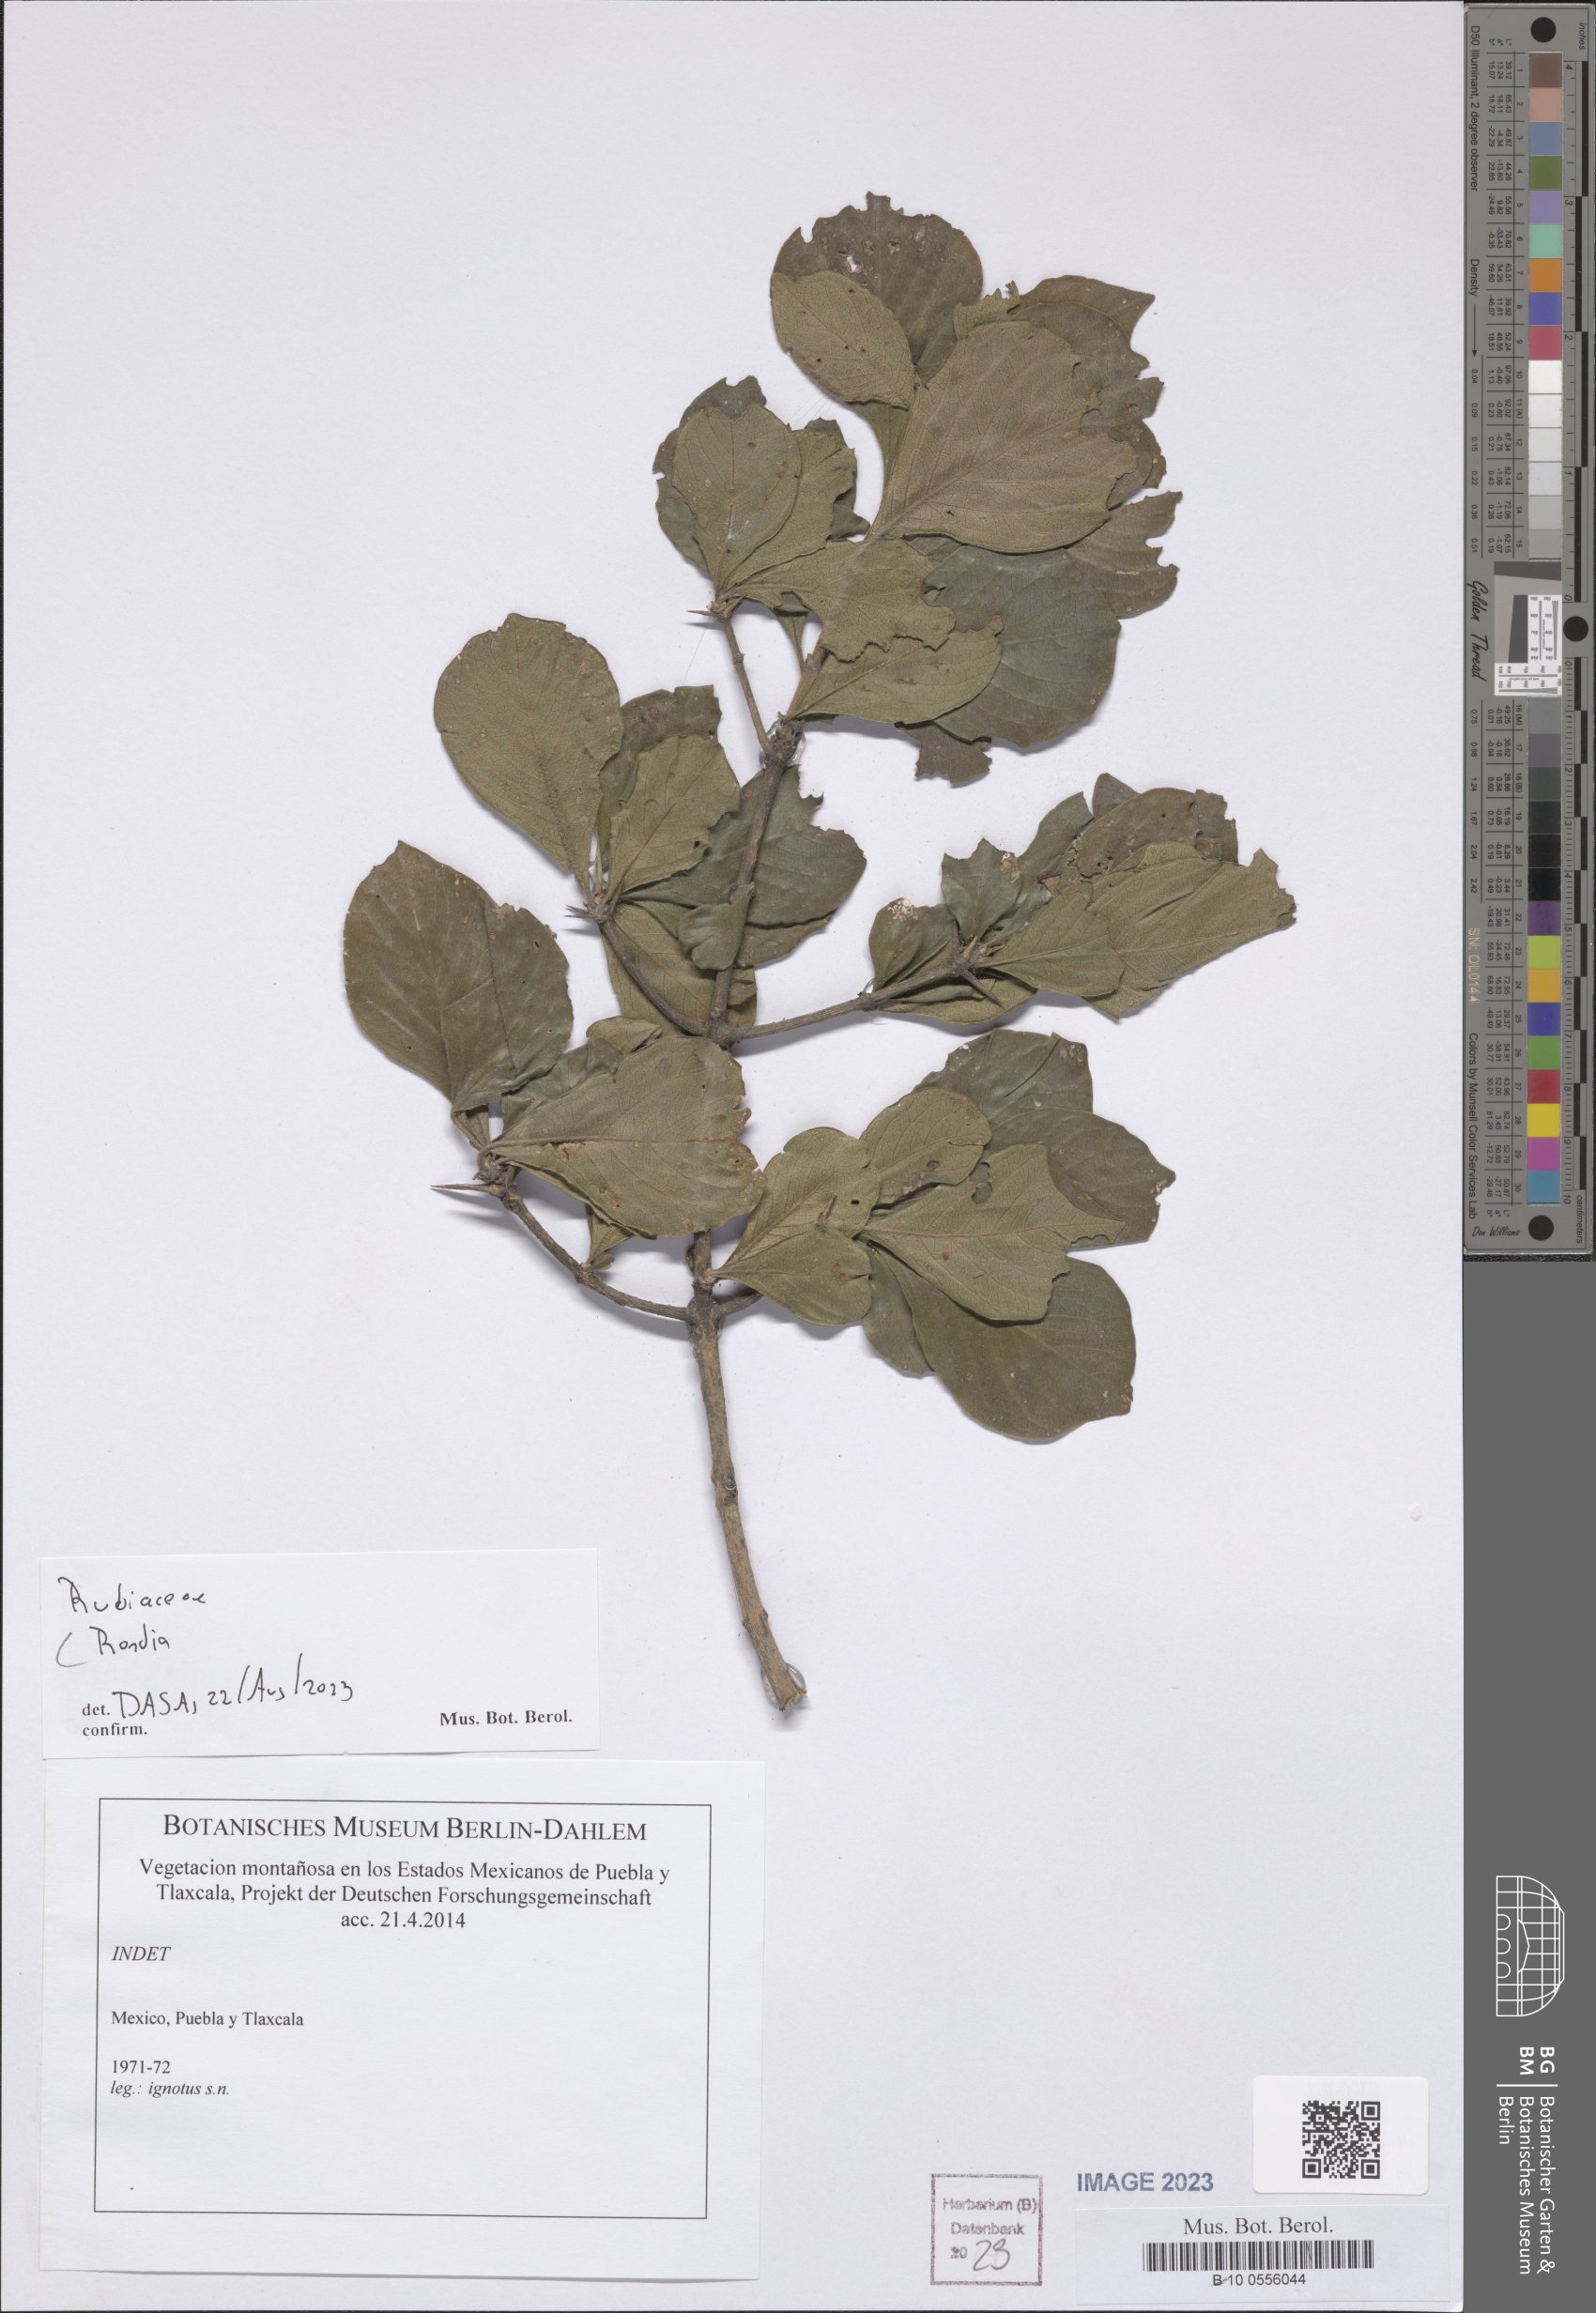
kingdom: Plantae
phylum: Tracheophyta
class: Magnoliopsida
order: Gentianales
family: Rubiaceae
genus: Randia
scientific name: Randia
